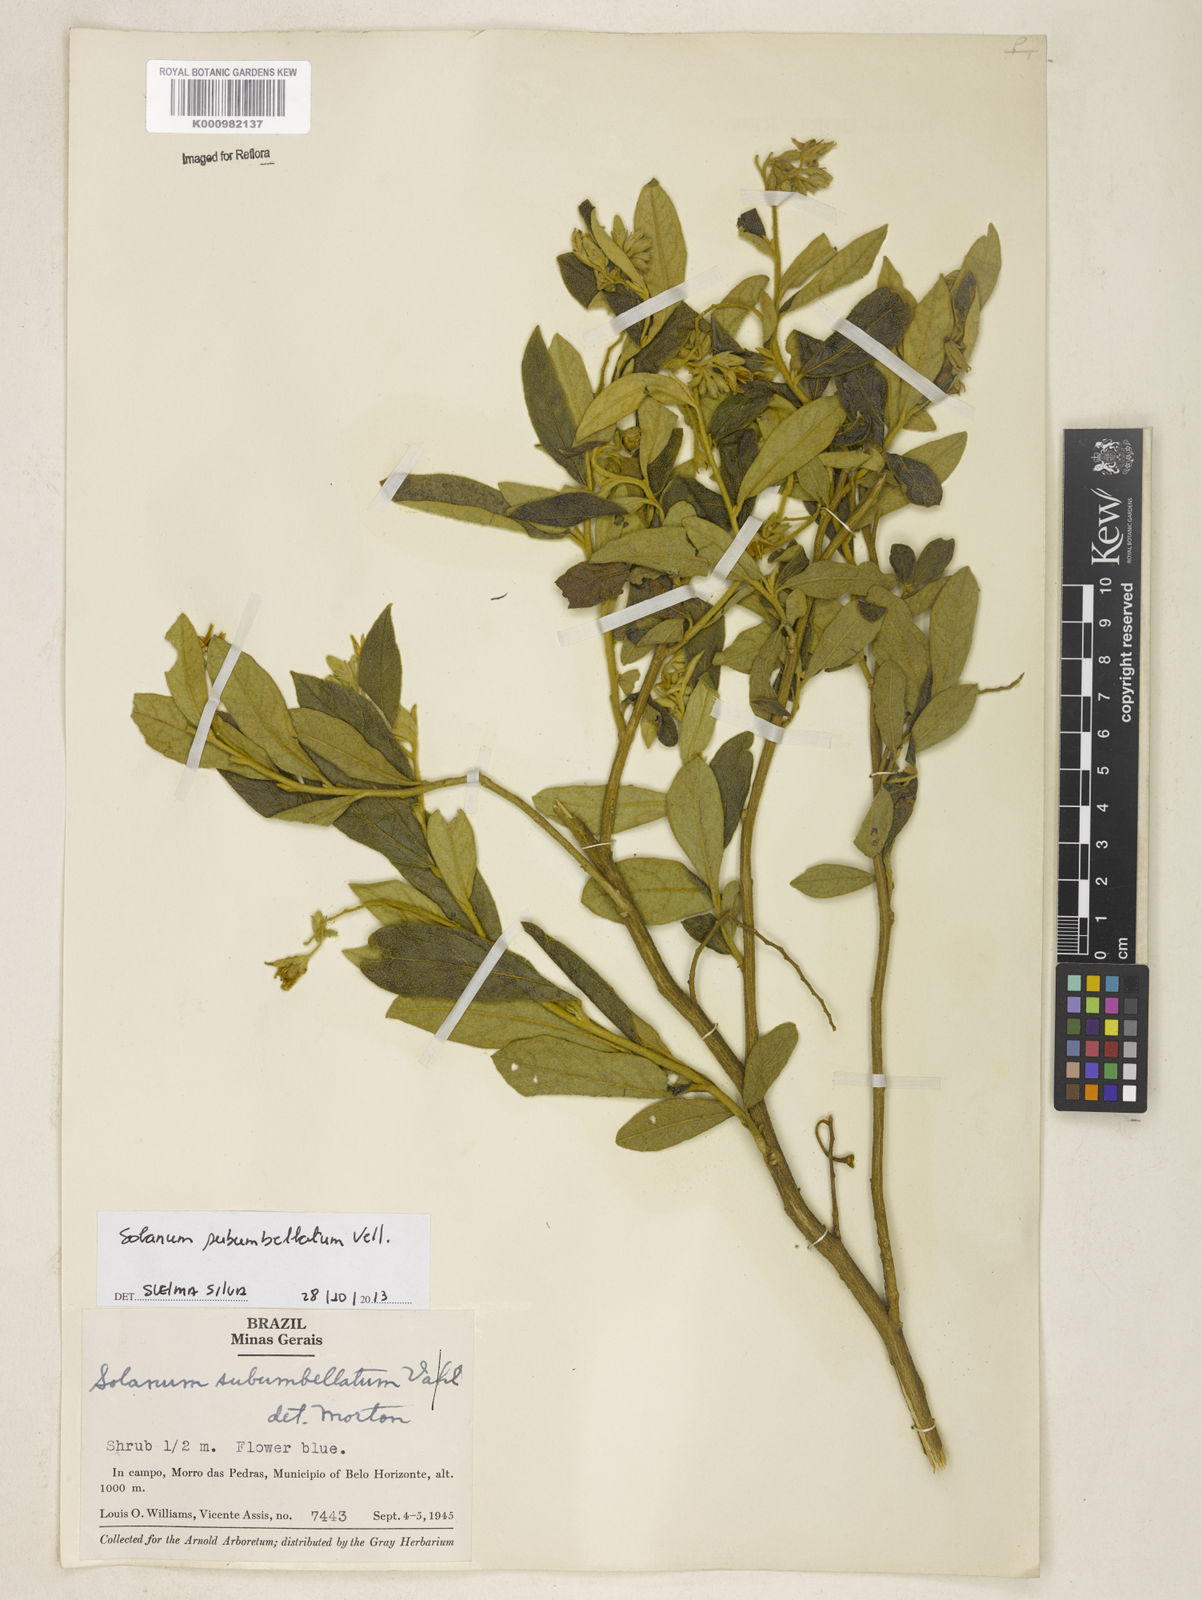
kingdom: Plantae
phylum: Tracheophyta
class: Magnoliopsida
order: Solanales
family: Solanaceae
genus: Solanum
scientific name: Solanum subumbellatum
